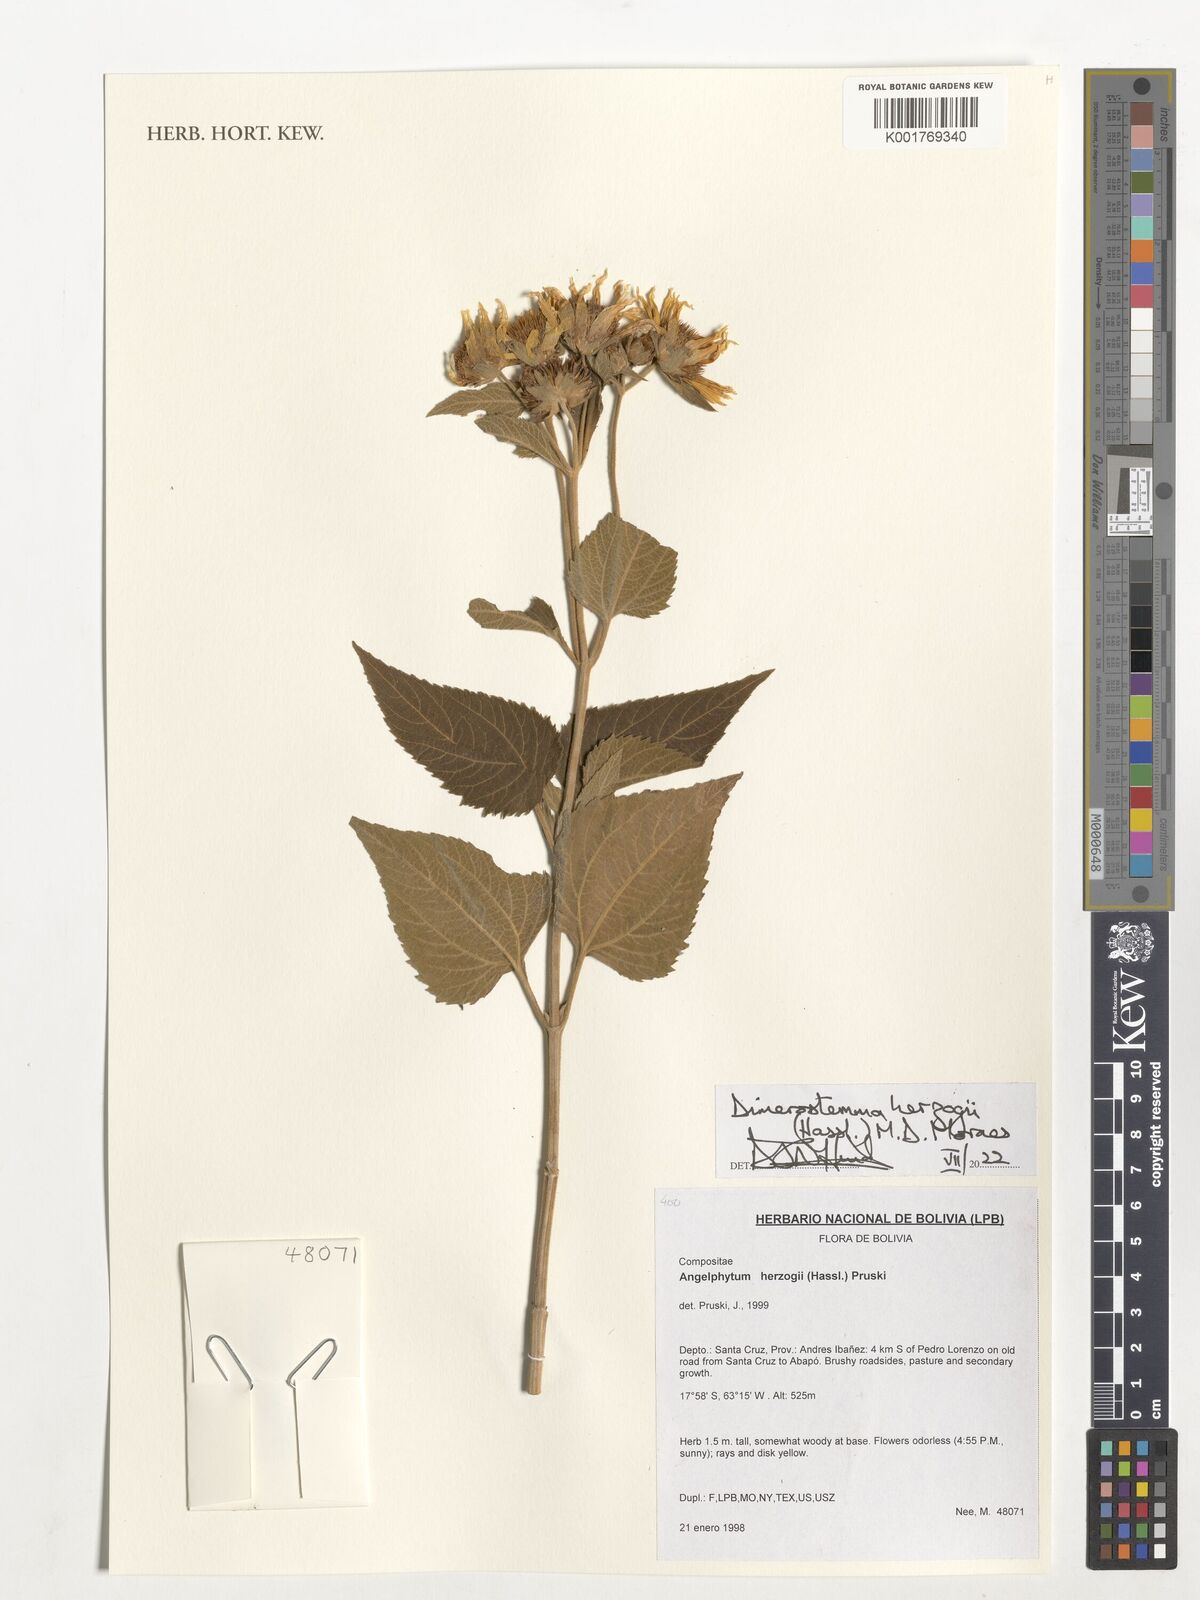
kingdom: Plantae
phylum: Tracheophyta
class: Magnoliopsida
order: Asterales
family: Asteraceae
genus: Dimerostemma
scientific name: Dimerostemma herzogii
